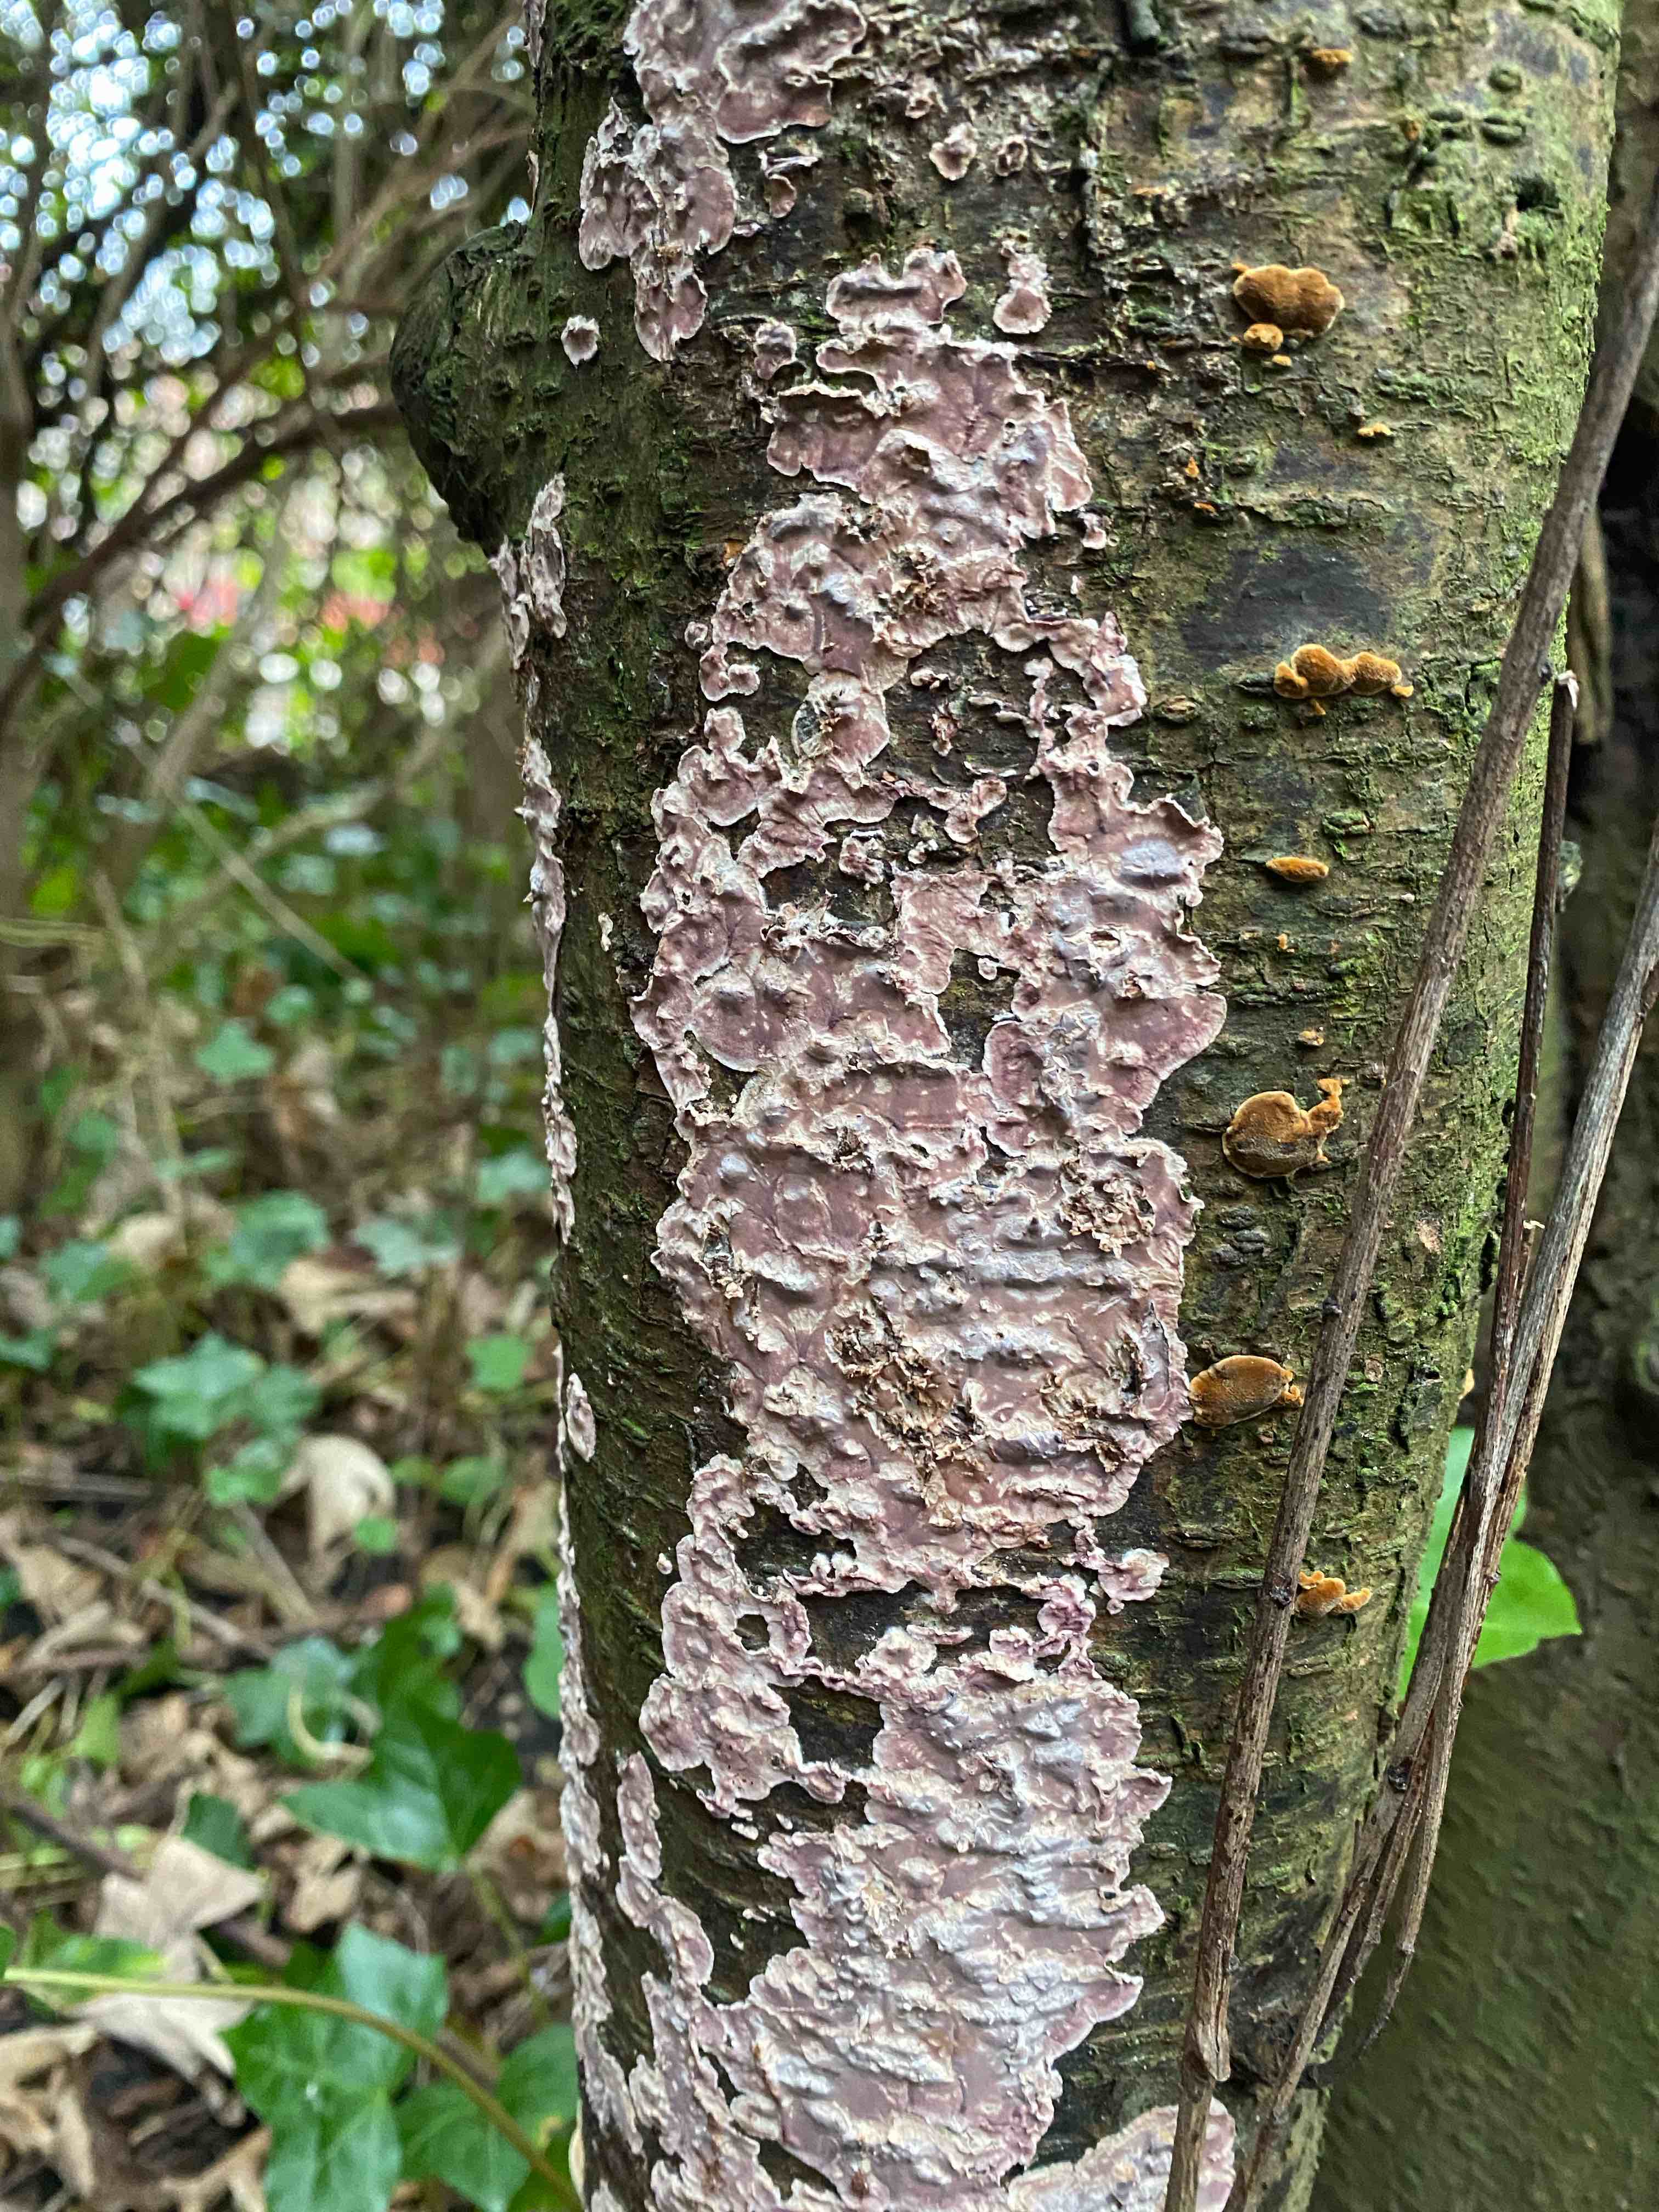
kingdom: Fungi
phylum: Basidiomycota
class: Agaricomycetes
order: Agaricales
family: Cyphellaceae
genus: Chondrostereum
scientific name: Chondrostereum purpureum
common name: purpurlædersvamp
